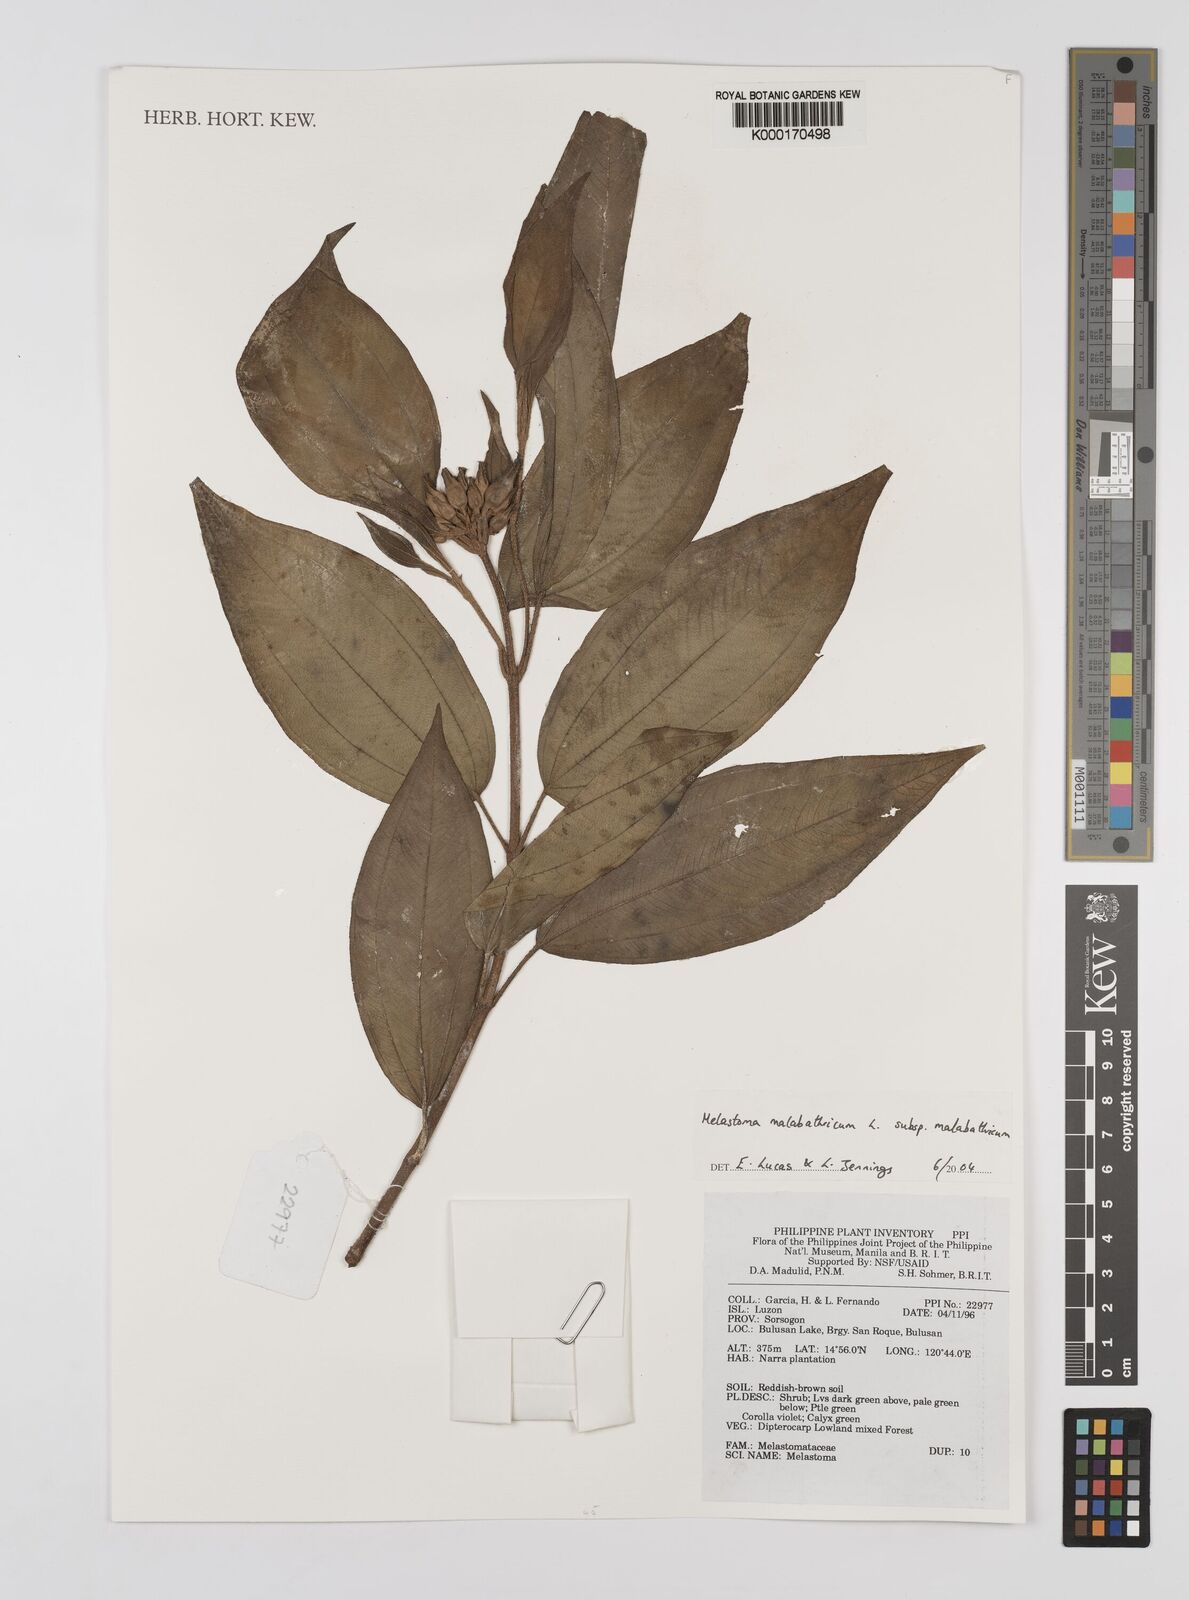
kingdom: Plantae
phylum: Tracheophyta
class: Magnoliopsida
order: Myrtales
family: Melastomataceae
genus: Melastoma
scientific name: Melastoma malabathricum
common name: Indian-rhododendron
